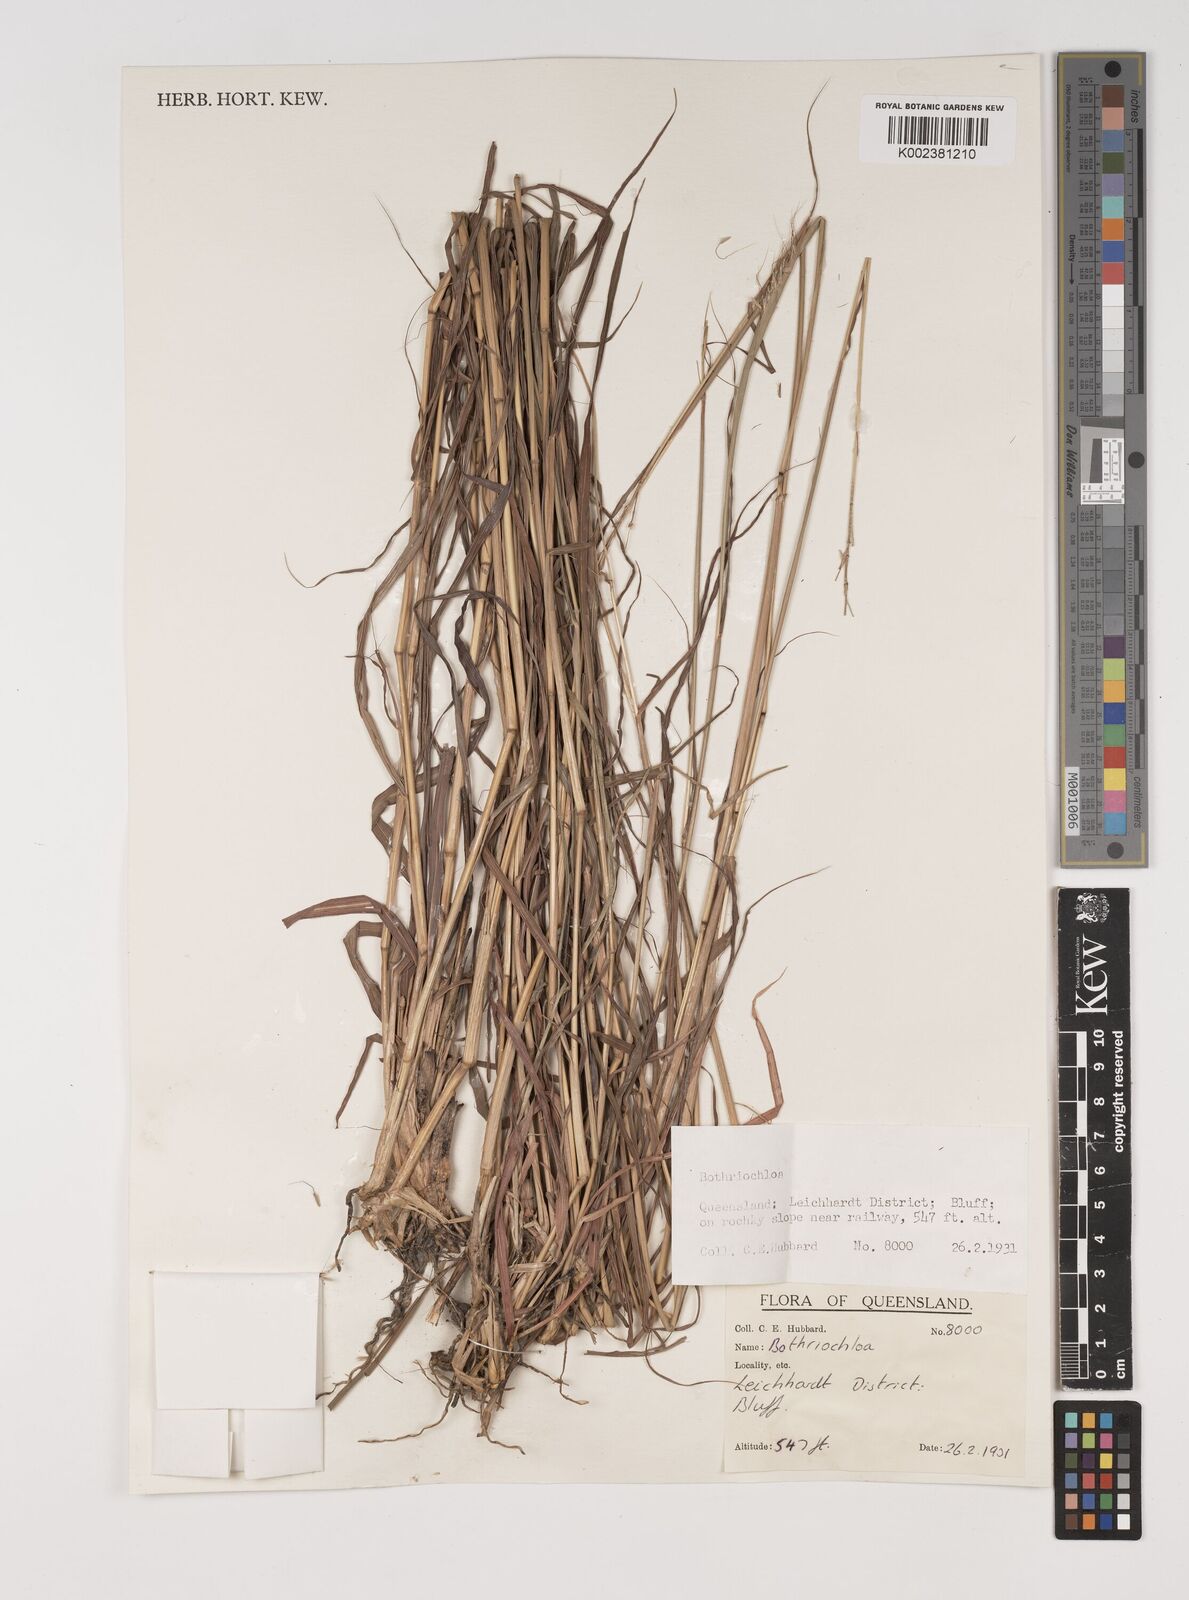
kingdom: Plantae
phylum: Tracheophyta
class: Liliopsida
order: Poales
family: Poaceae
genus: Bothriochloa
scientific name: Bothriochloa
